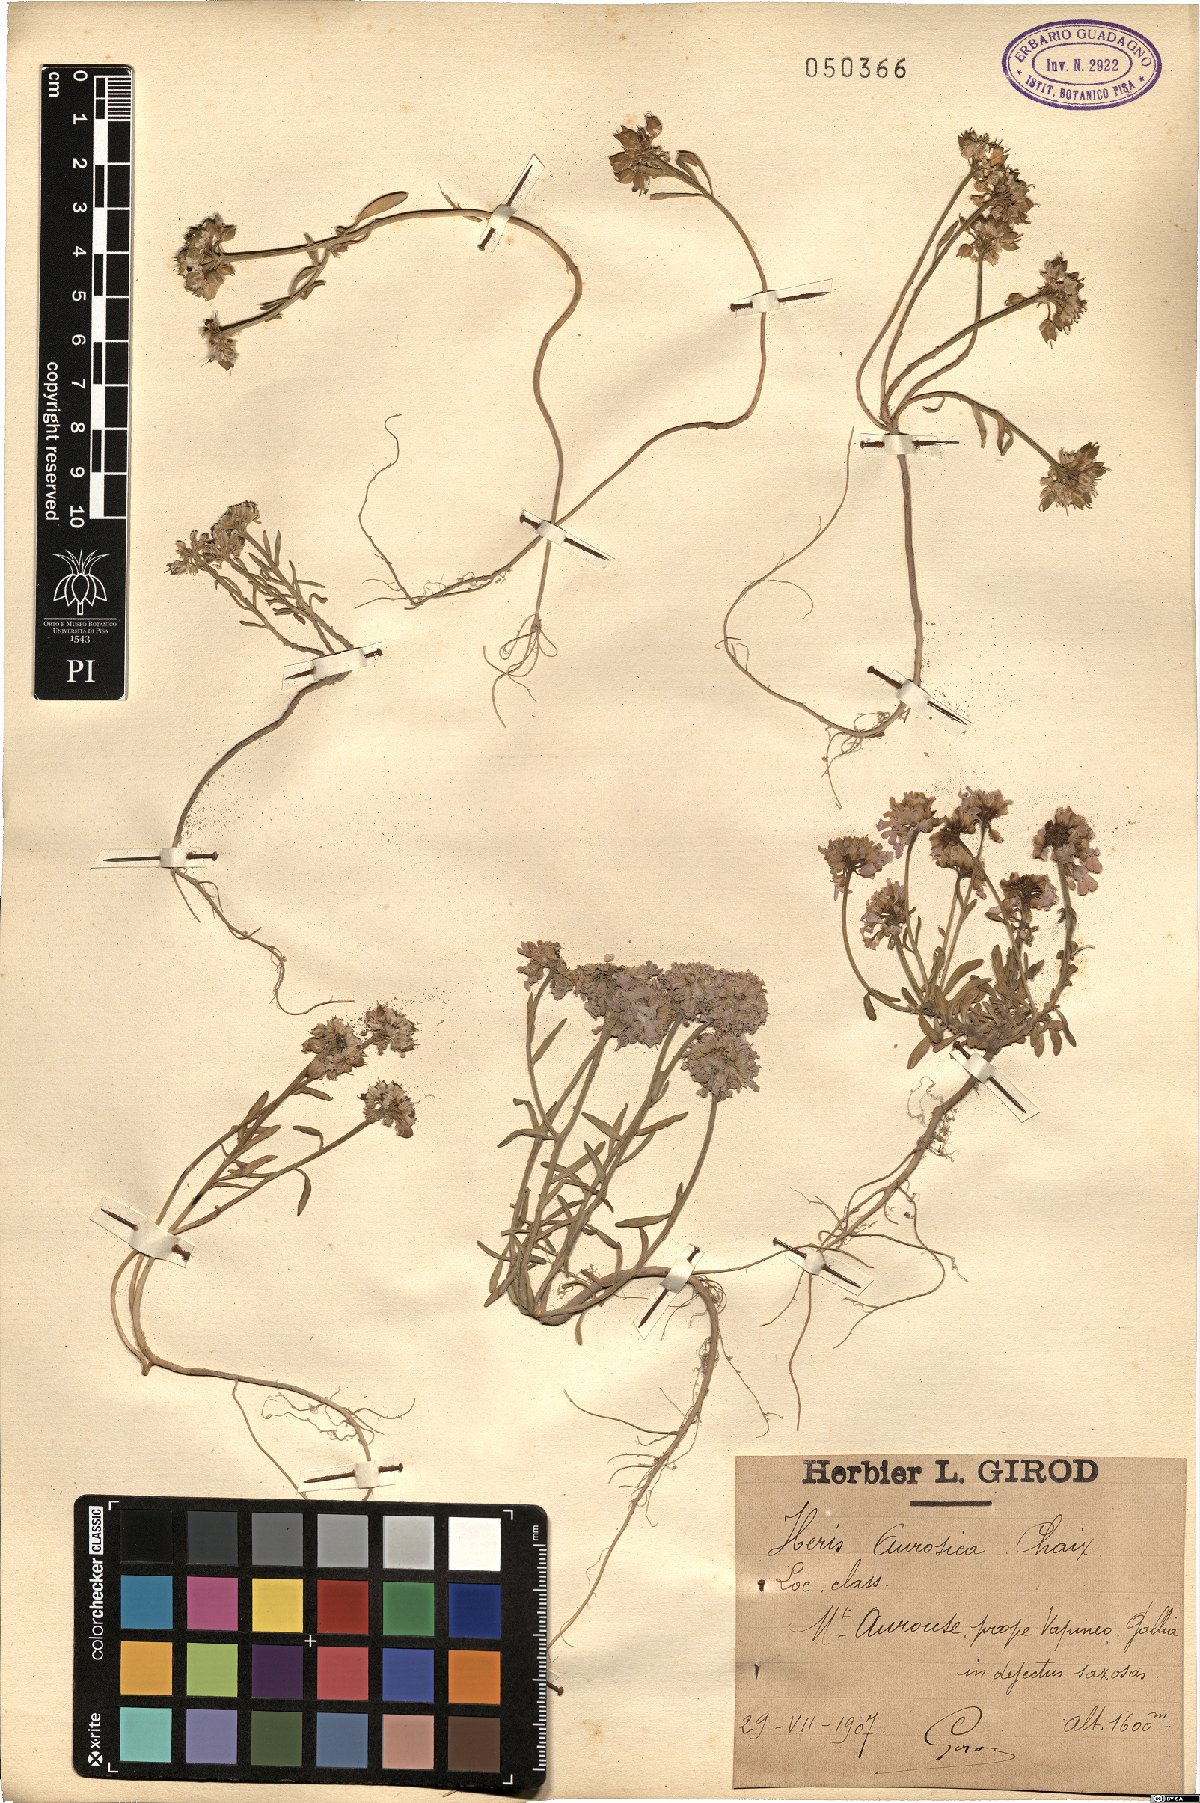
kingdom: Plantae
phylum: Tracheophyta
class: Magnoliopsida
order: Brassicales
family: Brassicaceae
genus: Iberis
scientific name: Iberis aurosica
